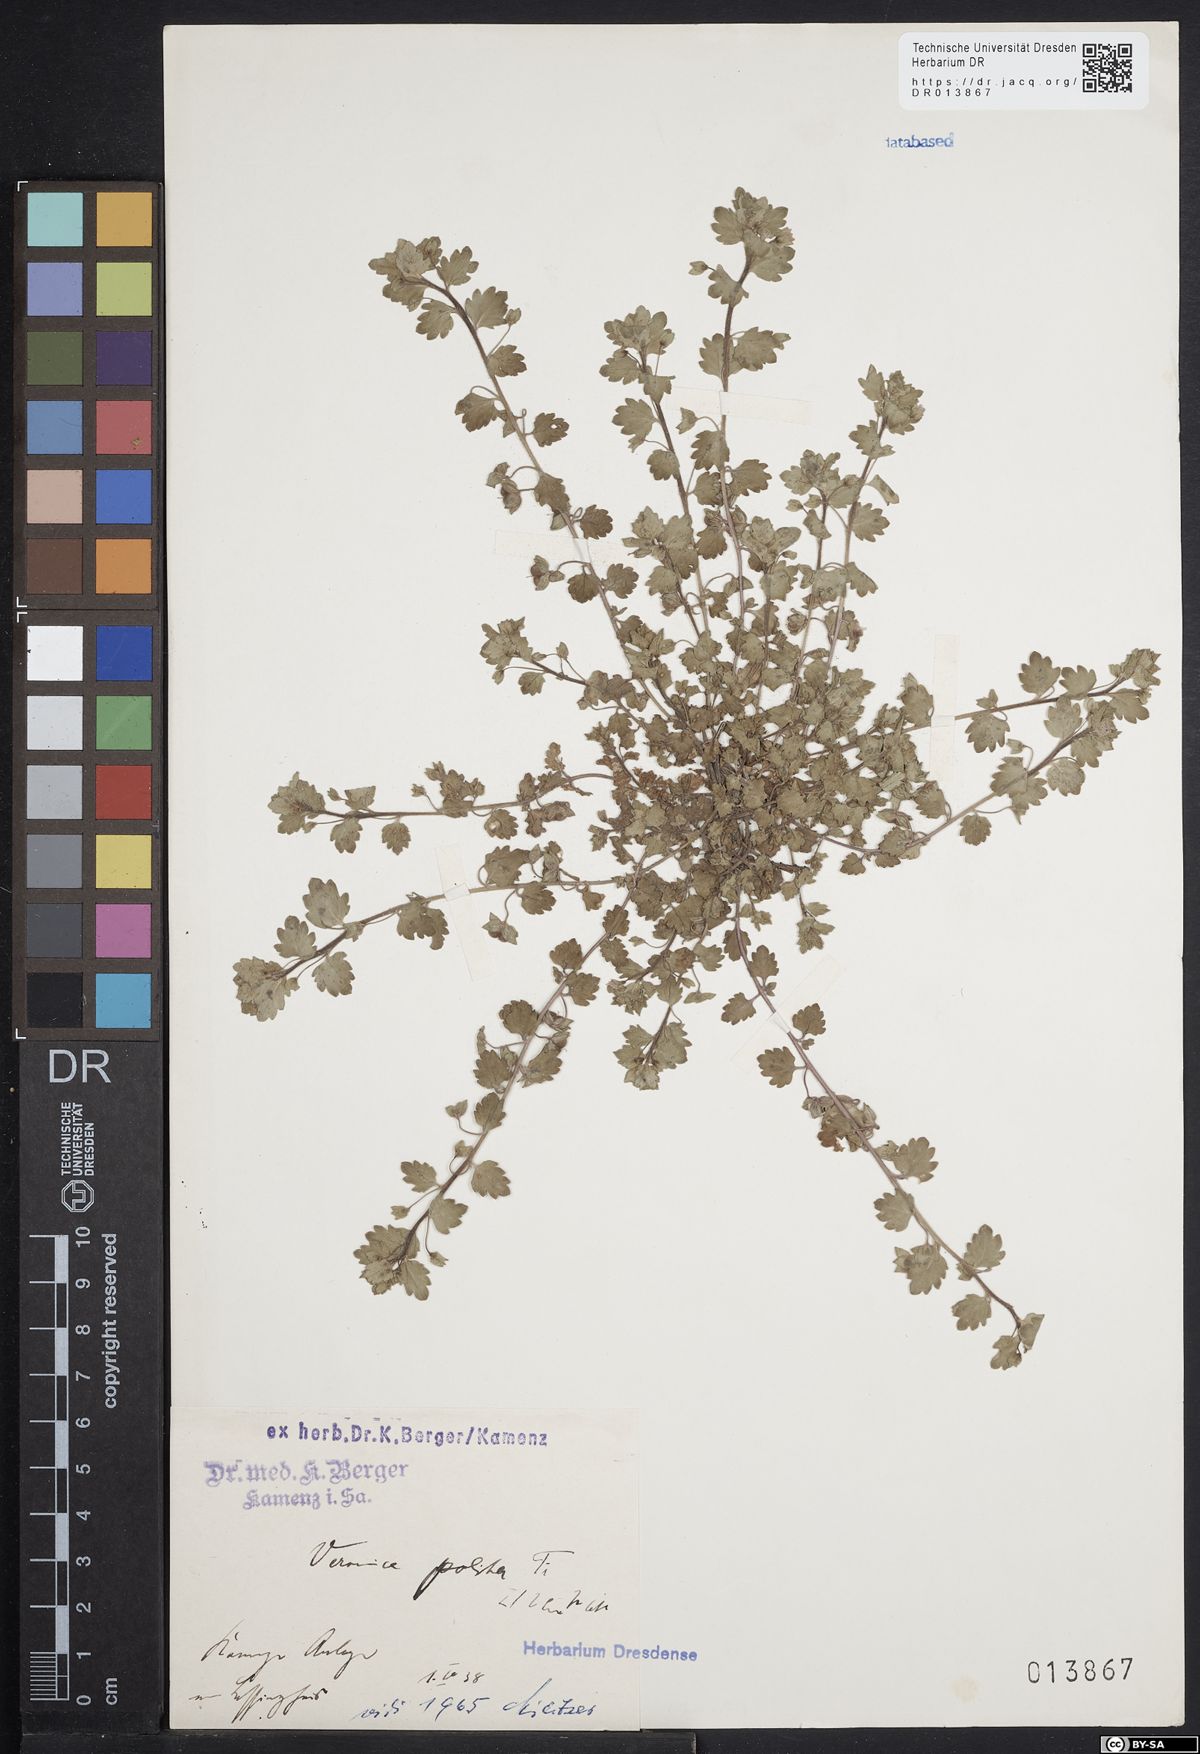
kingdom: Plantae
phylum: Tracheophyta
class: Magnoliopsida
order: Lamiales
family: Plantaginaceae
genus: Veronica
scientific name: Veronica polita
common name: Grey field-speedwell
